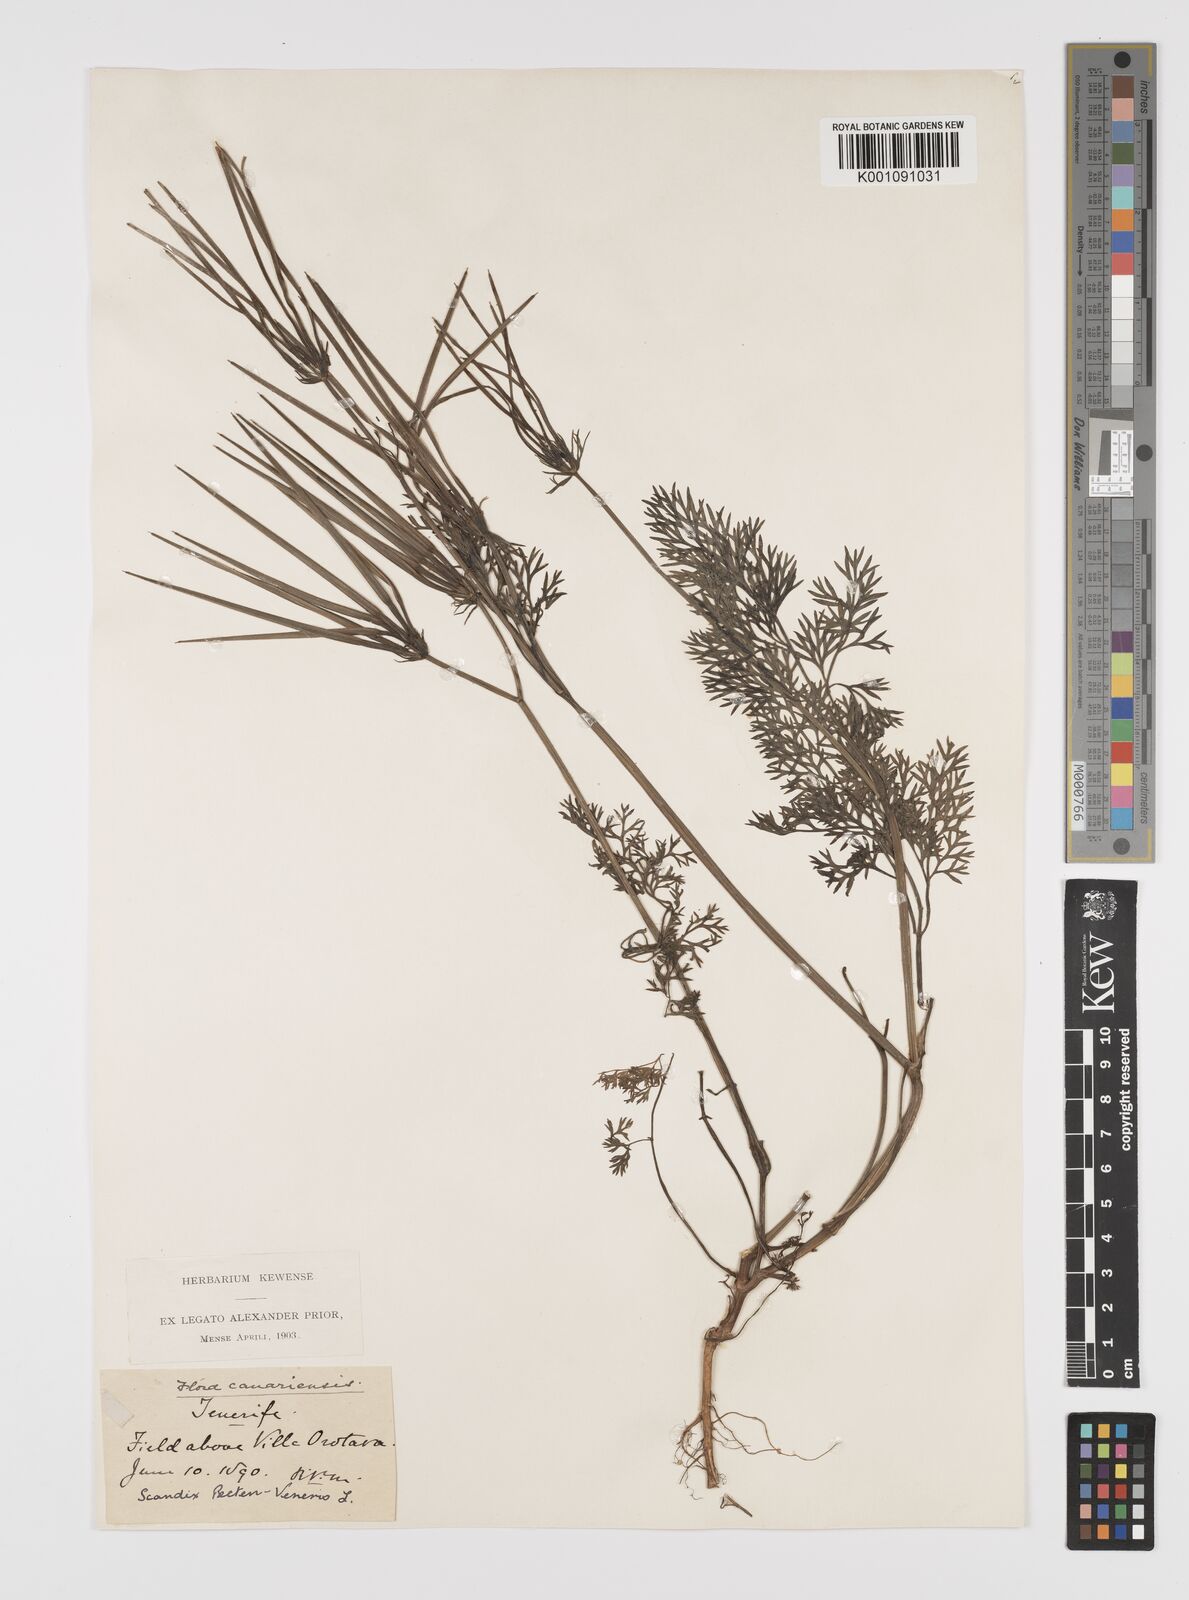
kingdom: Plantae
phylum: Tracheophyta
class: Magnoliopsida
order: Apiales
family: Apiaceae
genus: Scandix
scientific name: Scandix pecten-veneris
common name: Shepherd's-needle
